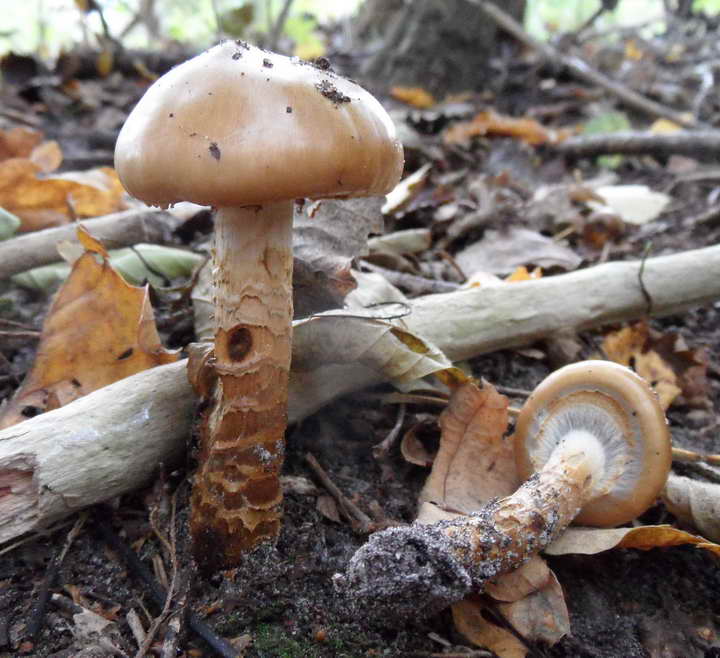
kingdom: Fungi
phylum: Basidiomycota
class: Agaricomycetes
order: Agaricales
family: Cortinariaceae
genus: Cortinarius
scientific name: Cortinarius trivialis
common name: brunslimet slørhat
